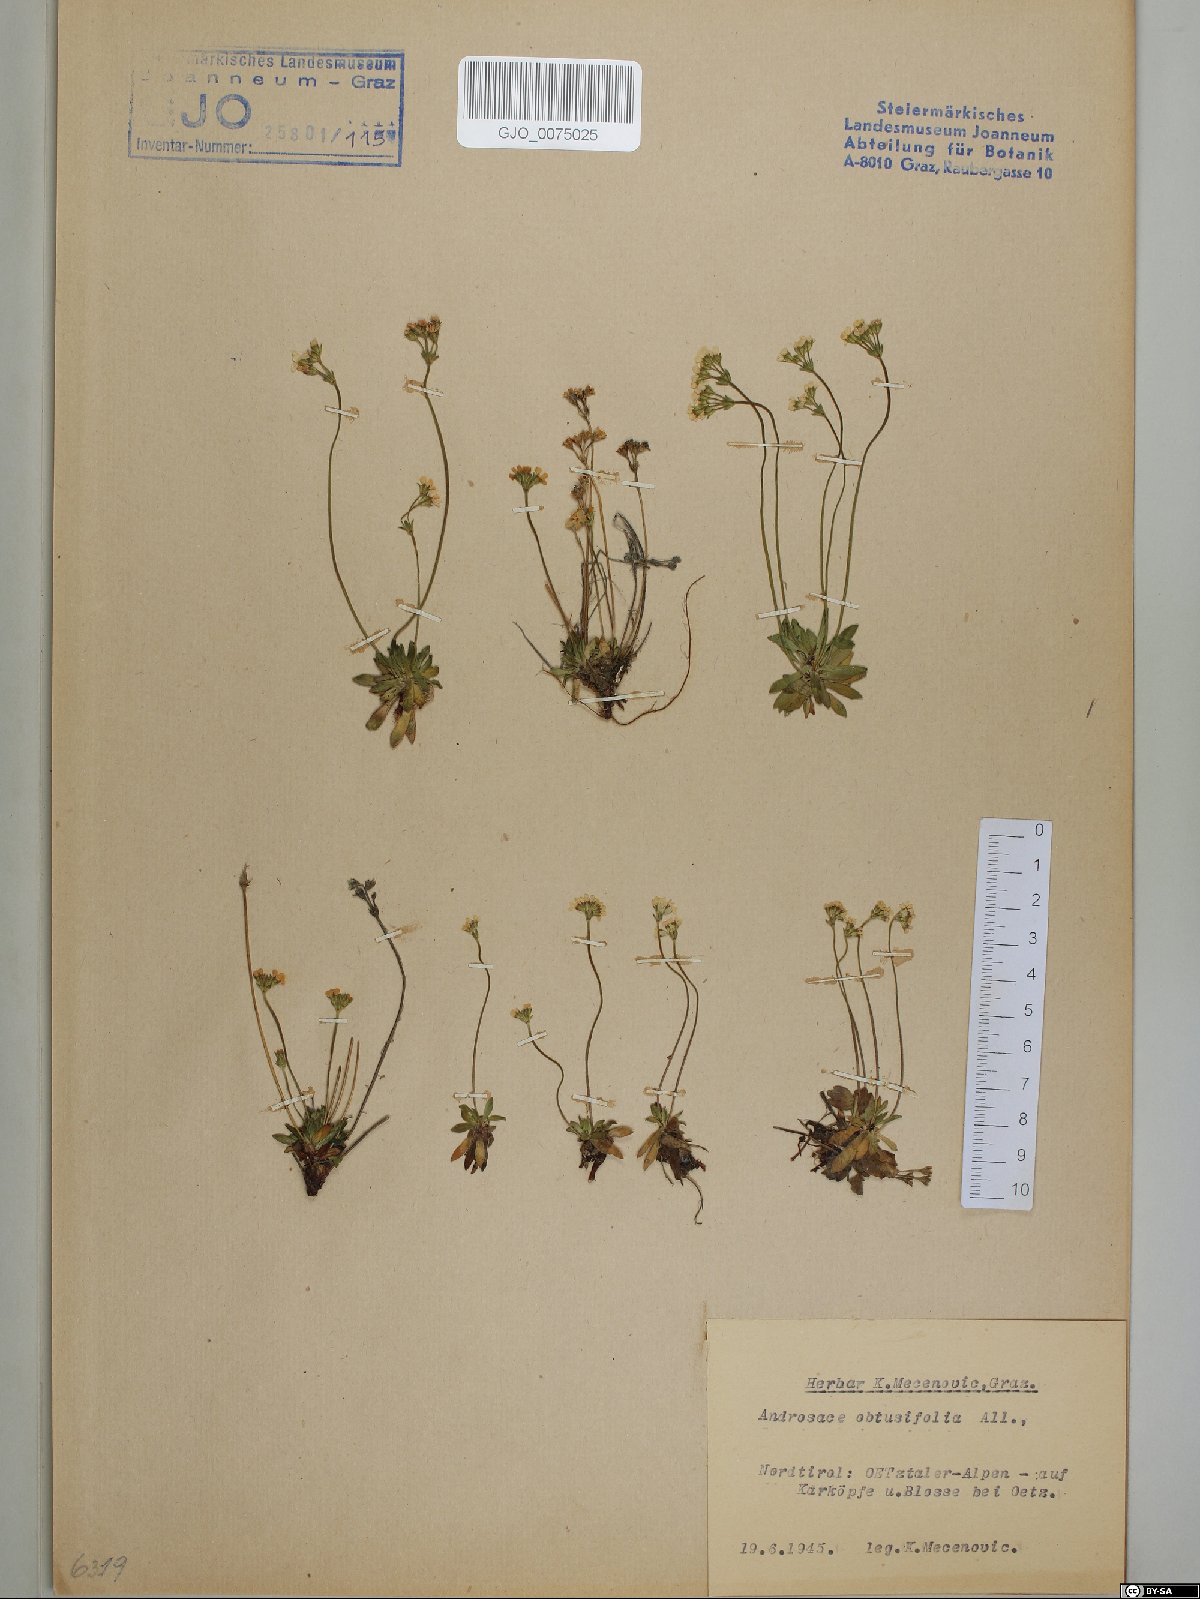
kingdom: Plantae
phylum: Tracheophyta
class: Magnoliopsida
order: Ericales
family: Primulaceae
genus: Androsace
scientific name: Androsace obtusifolia
